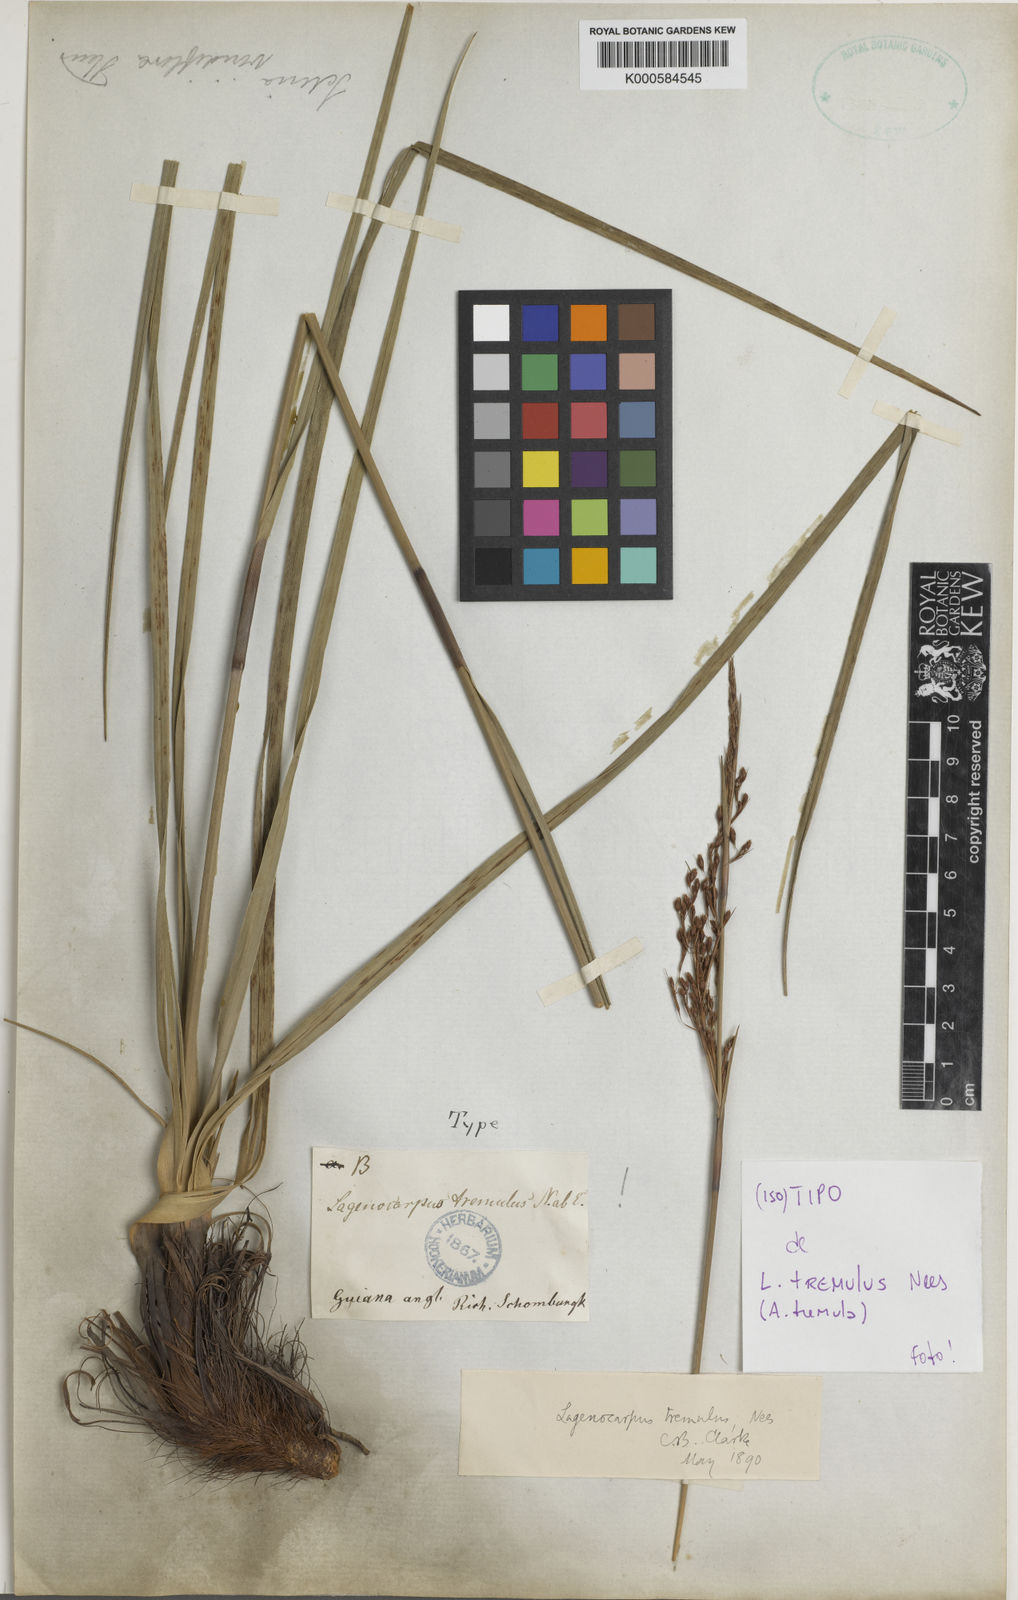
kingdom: Plantae
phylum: Tracheophyta
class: Liliopsida
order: Poales
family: Cyperaceae
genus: Lagenocarpus
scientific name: Lagenocarpus rigidus
